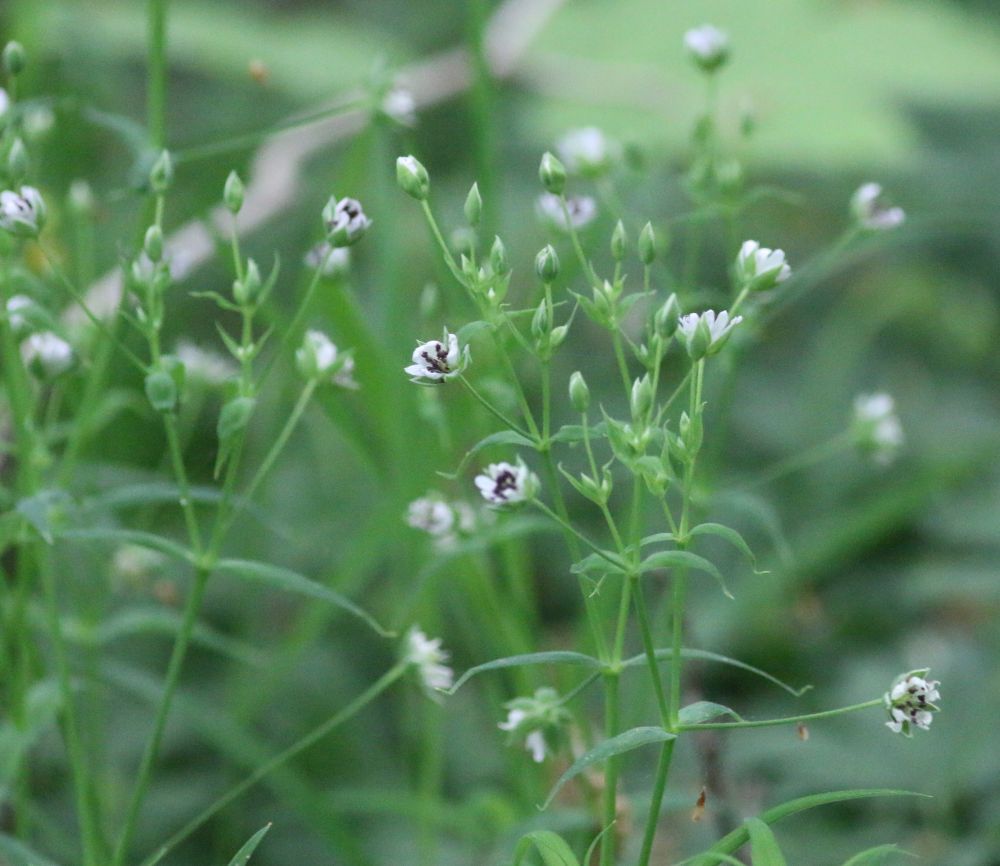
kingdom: Fungi
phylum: Basidiomycota
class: Microbotryomycetes
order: Microbotryales
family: Microbotryaceae
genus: Microbotryum
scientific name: Microbotryum stellariae
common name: fladstjerne-støvbladrust
